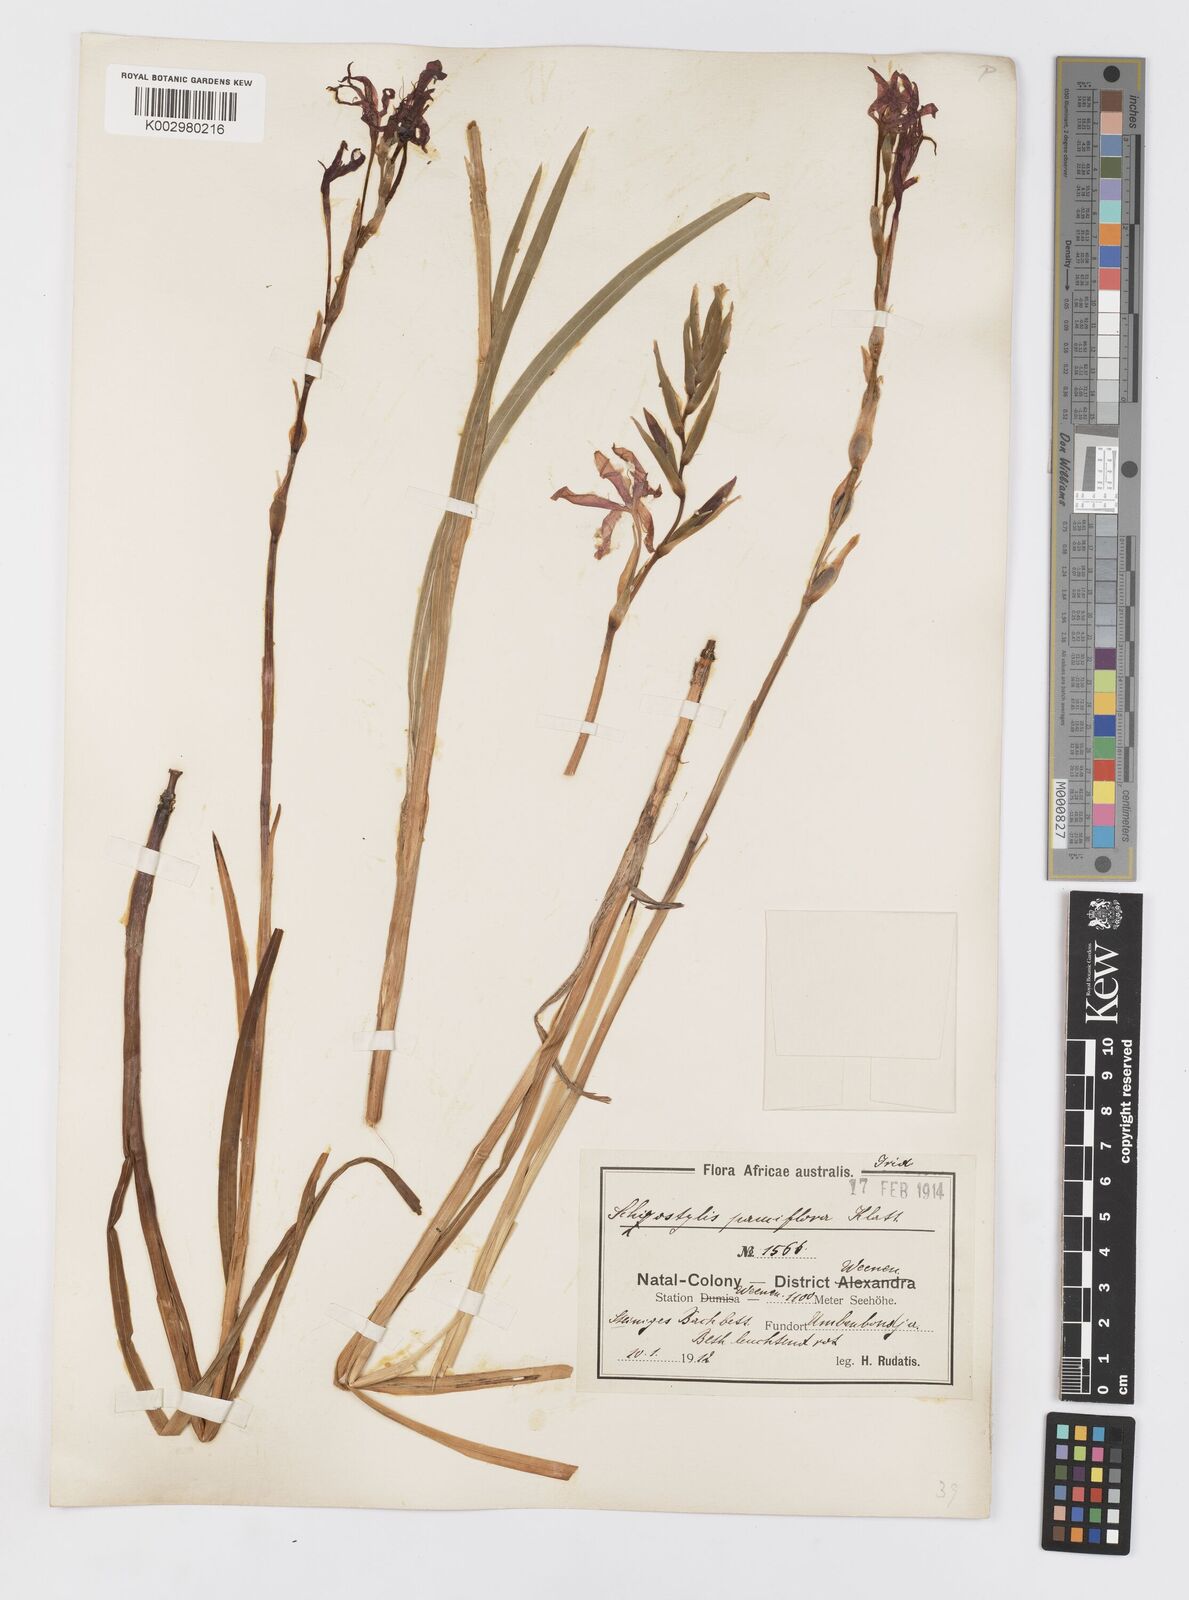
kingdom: Plantae
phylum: Tracheophyta
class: Liliopsida
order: Asparagales
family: Iridaceae
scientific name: Iridaceae
